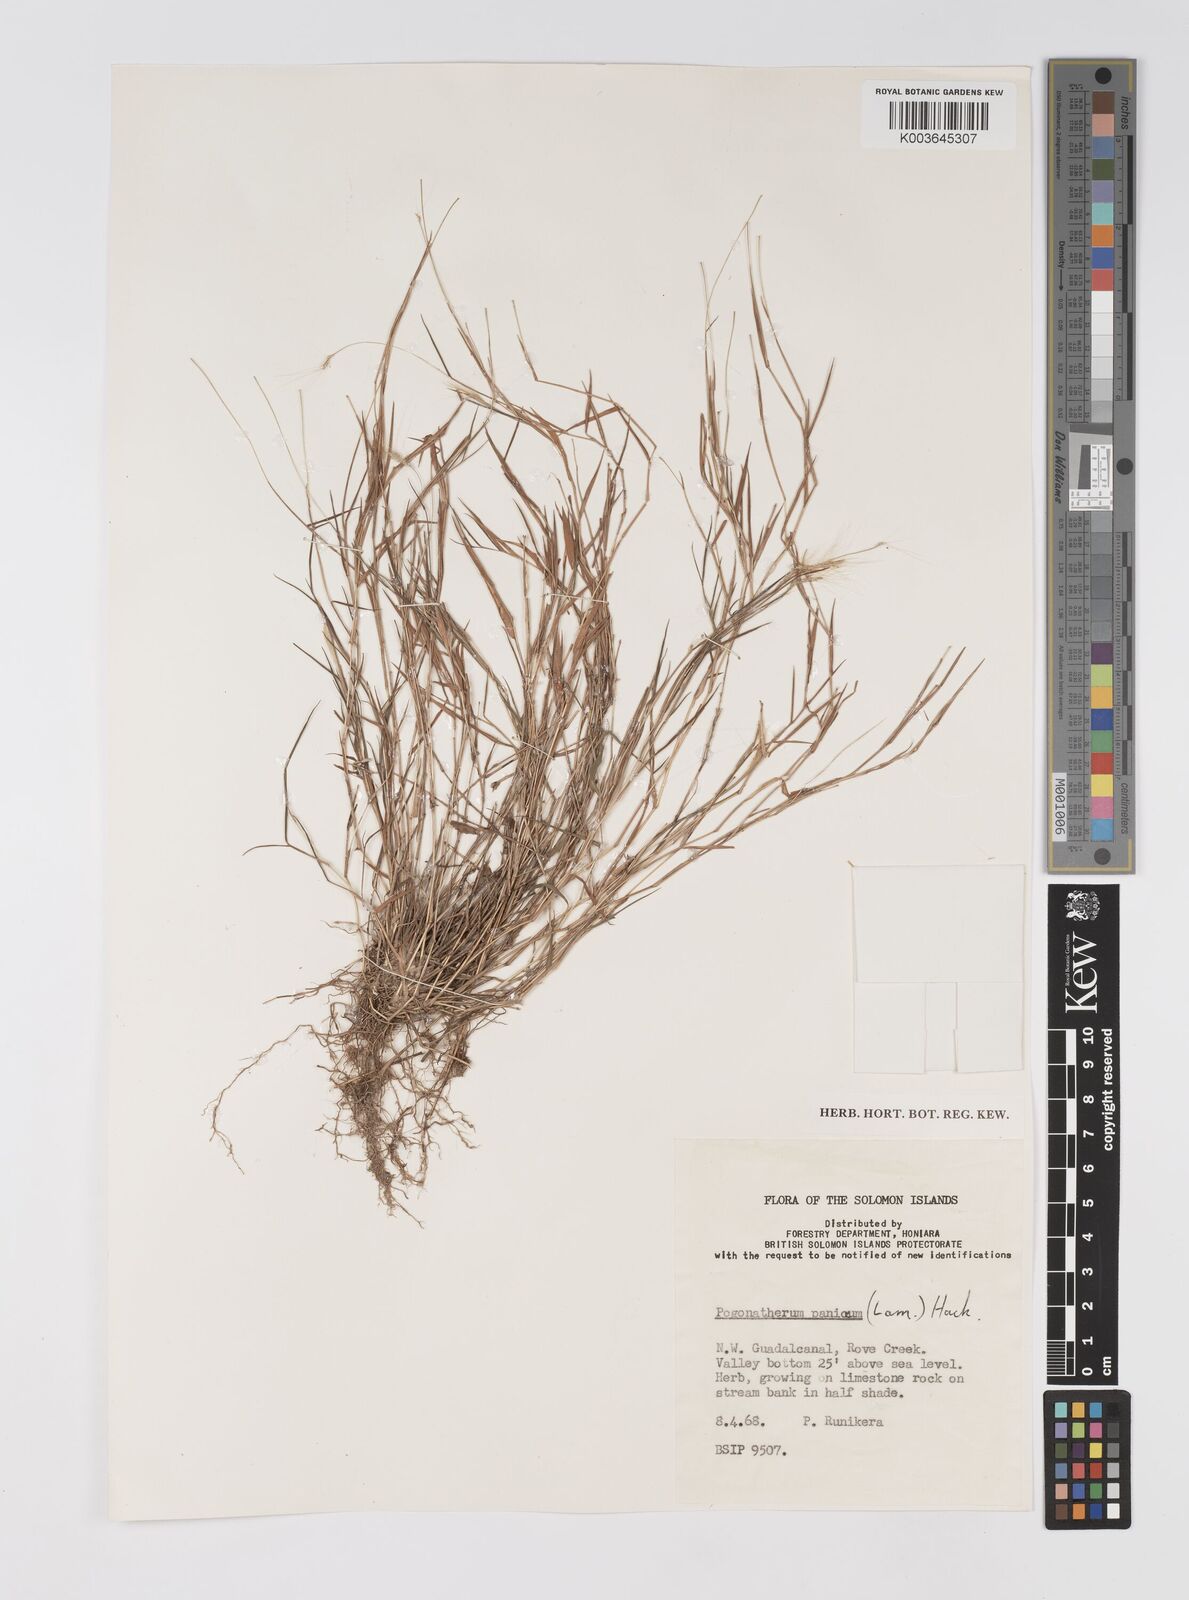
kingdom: Plantae
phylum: Tracheophyta
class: Liliopsida
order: Poales
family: Poaceae
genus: Pogonatherum
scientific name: Pogonatherum crinitum
